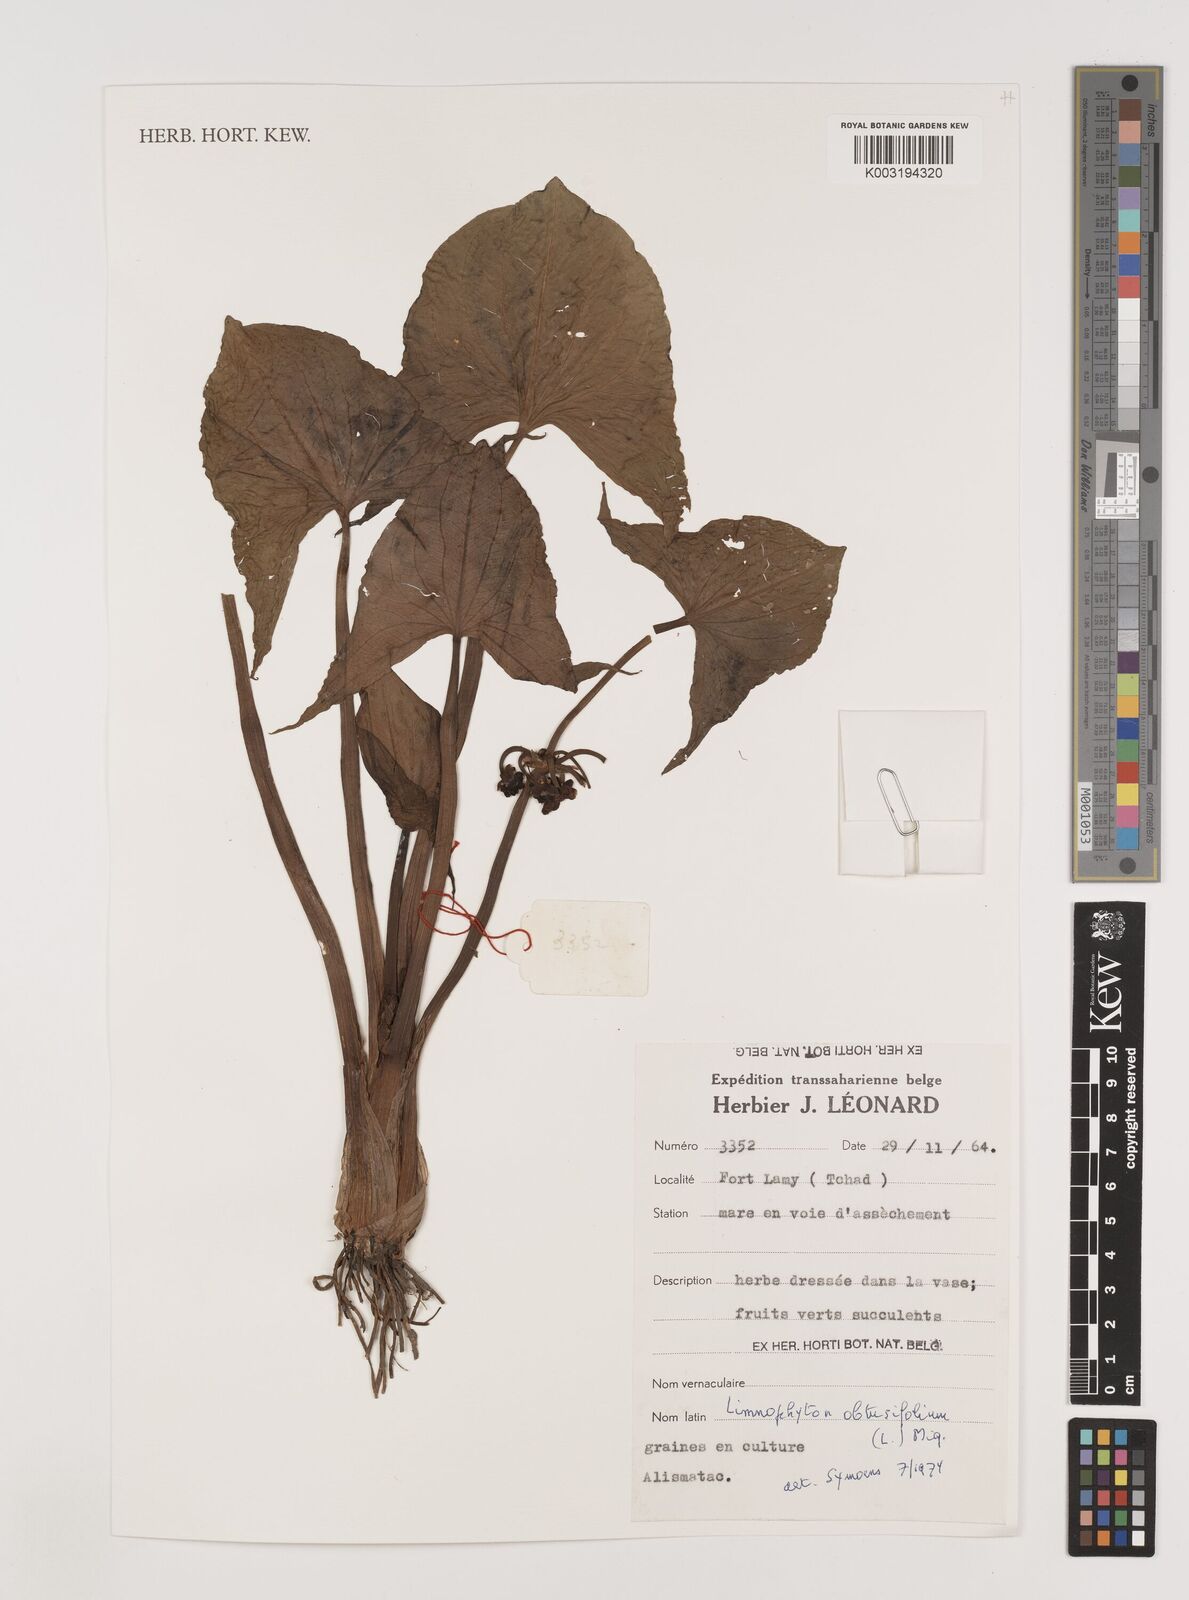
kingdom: Plantae
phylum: Tracheophyta
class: Liliopsida
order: Alismatales
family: Alismataceae
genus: Limnophyton
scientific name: Limnophyton obtusifolium
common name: Arrow head
